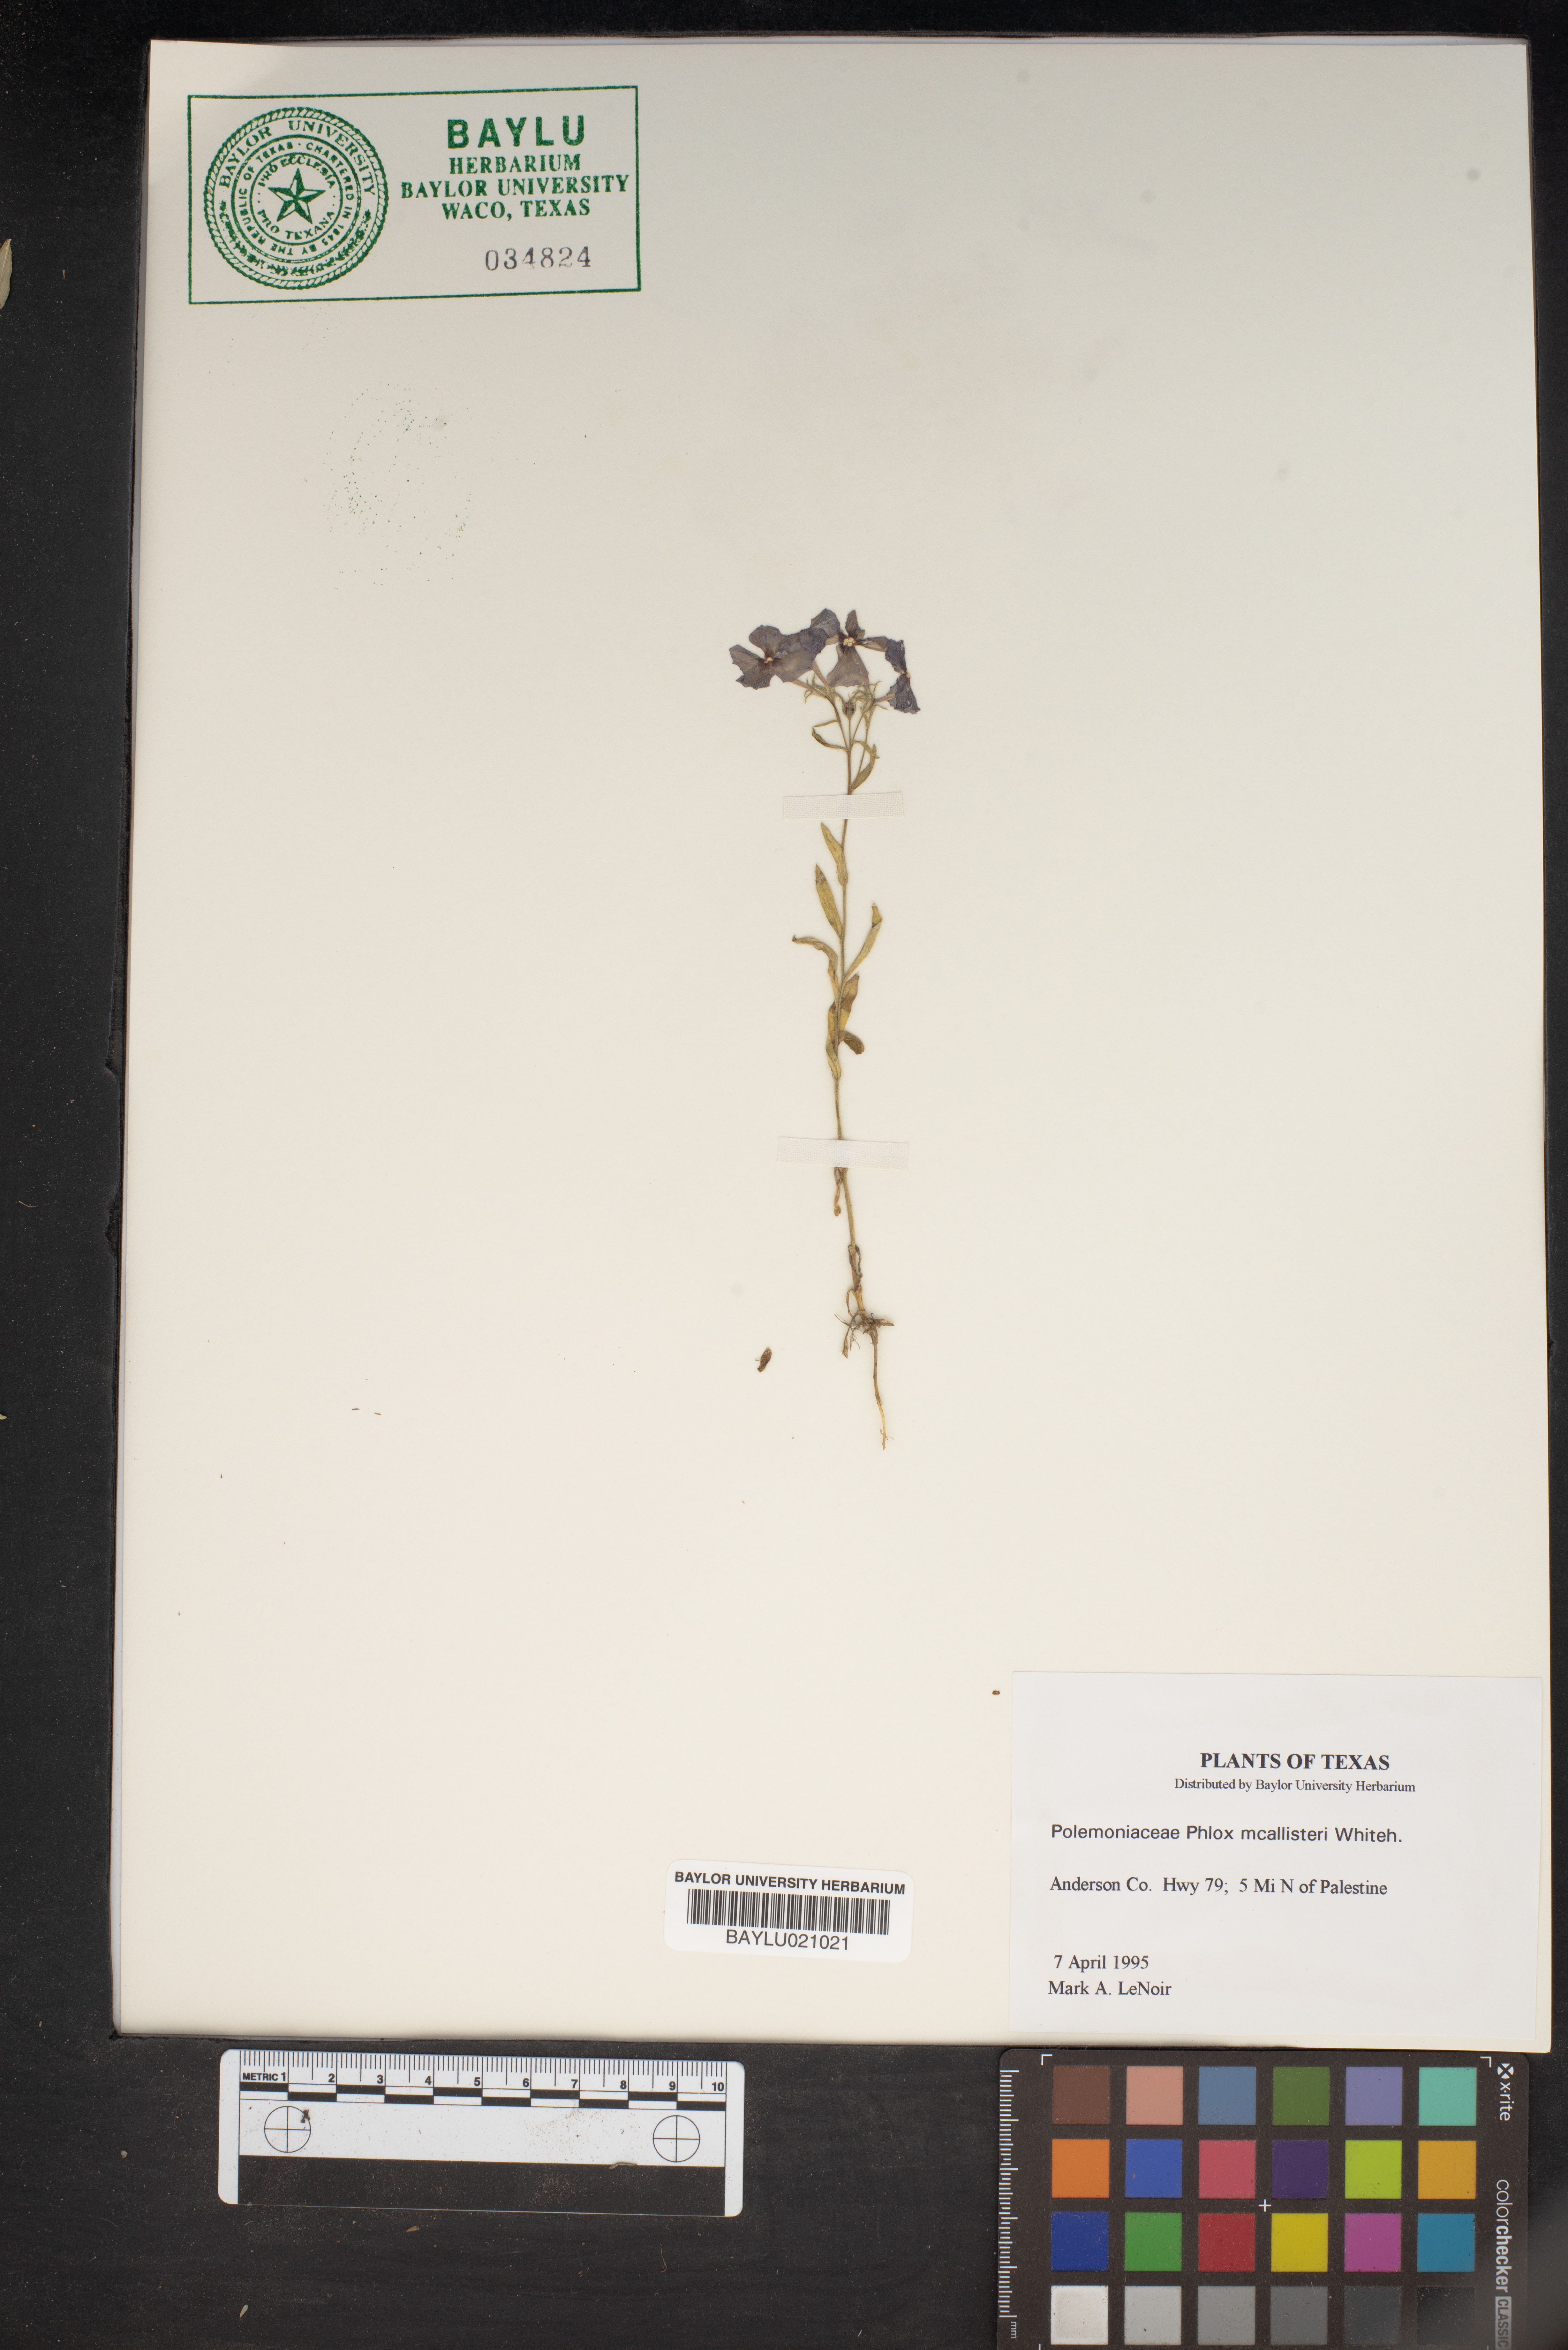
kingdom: Plantae
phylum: Tracheophyta
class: Magnoliopsida
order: Ericales
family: Polemoniaceae
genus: Phlox
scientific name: Phlox drummondii
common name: Drummond's phlox
